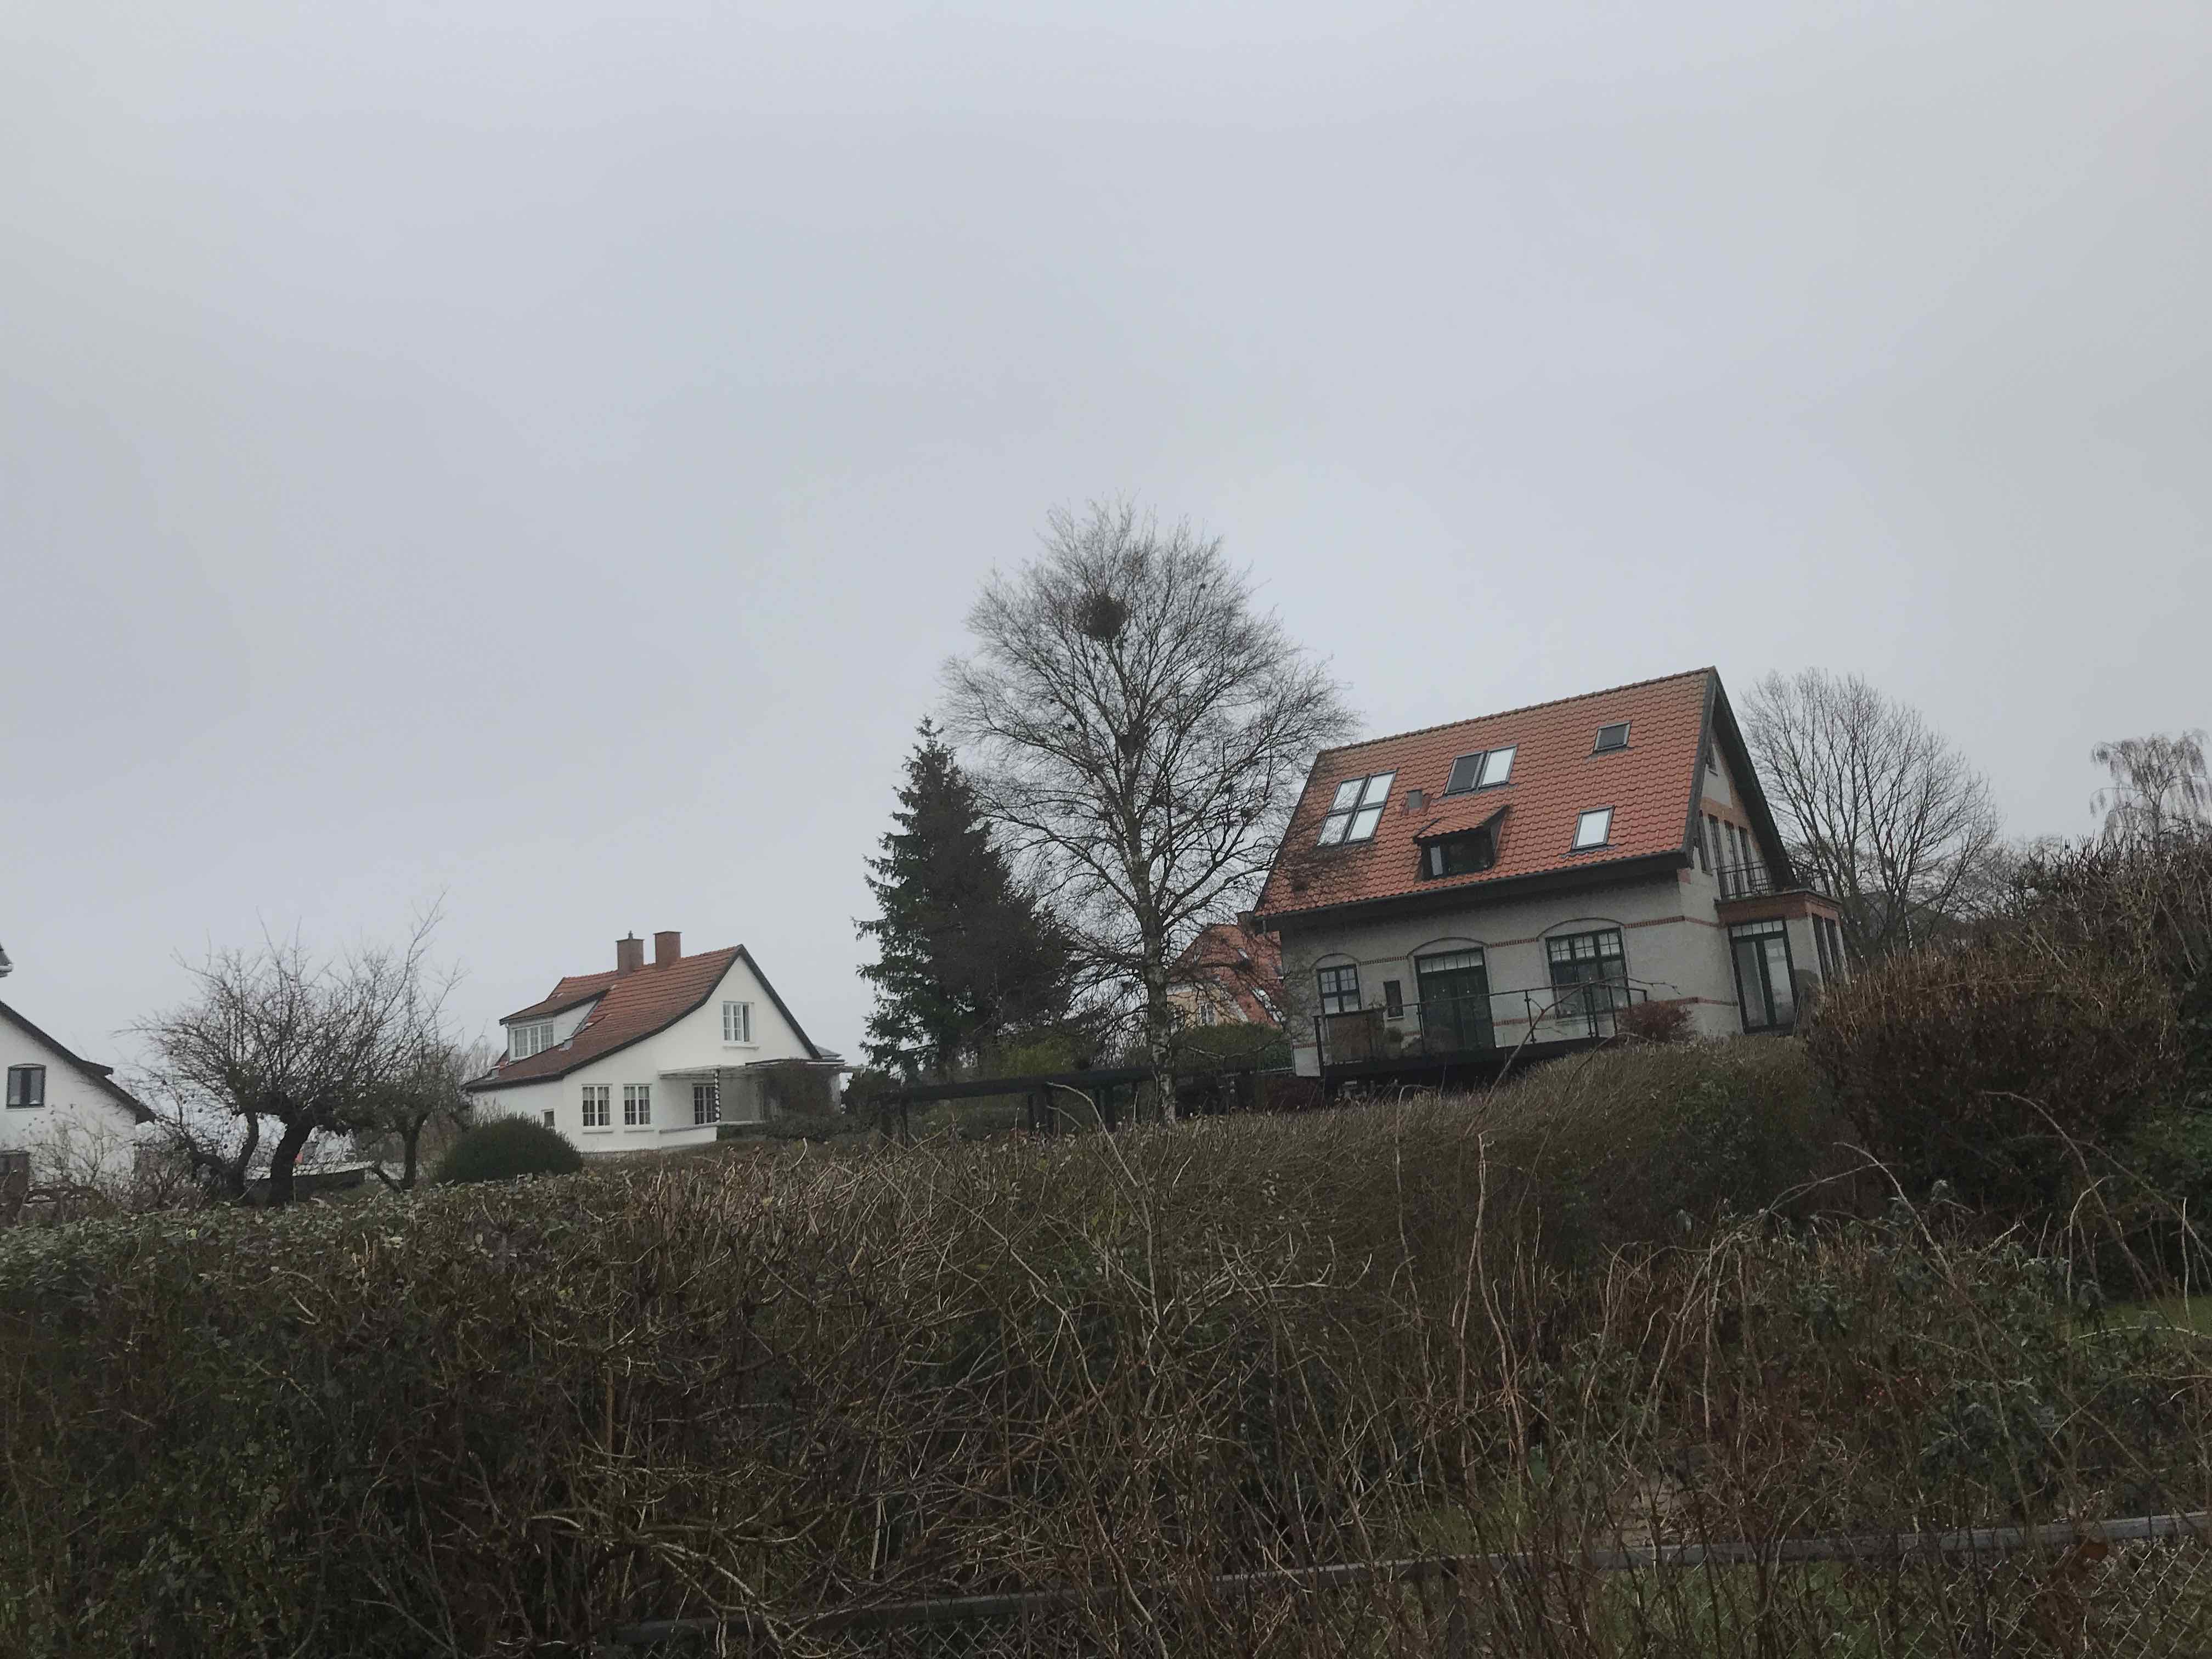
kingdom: Fungi
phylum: Ascomycota
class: Taphrinomycetes
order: Taphrinales
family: Taphrinaceae
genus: Taphrina
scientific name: Taphrina betulina
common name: hekse-sækdug
